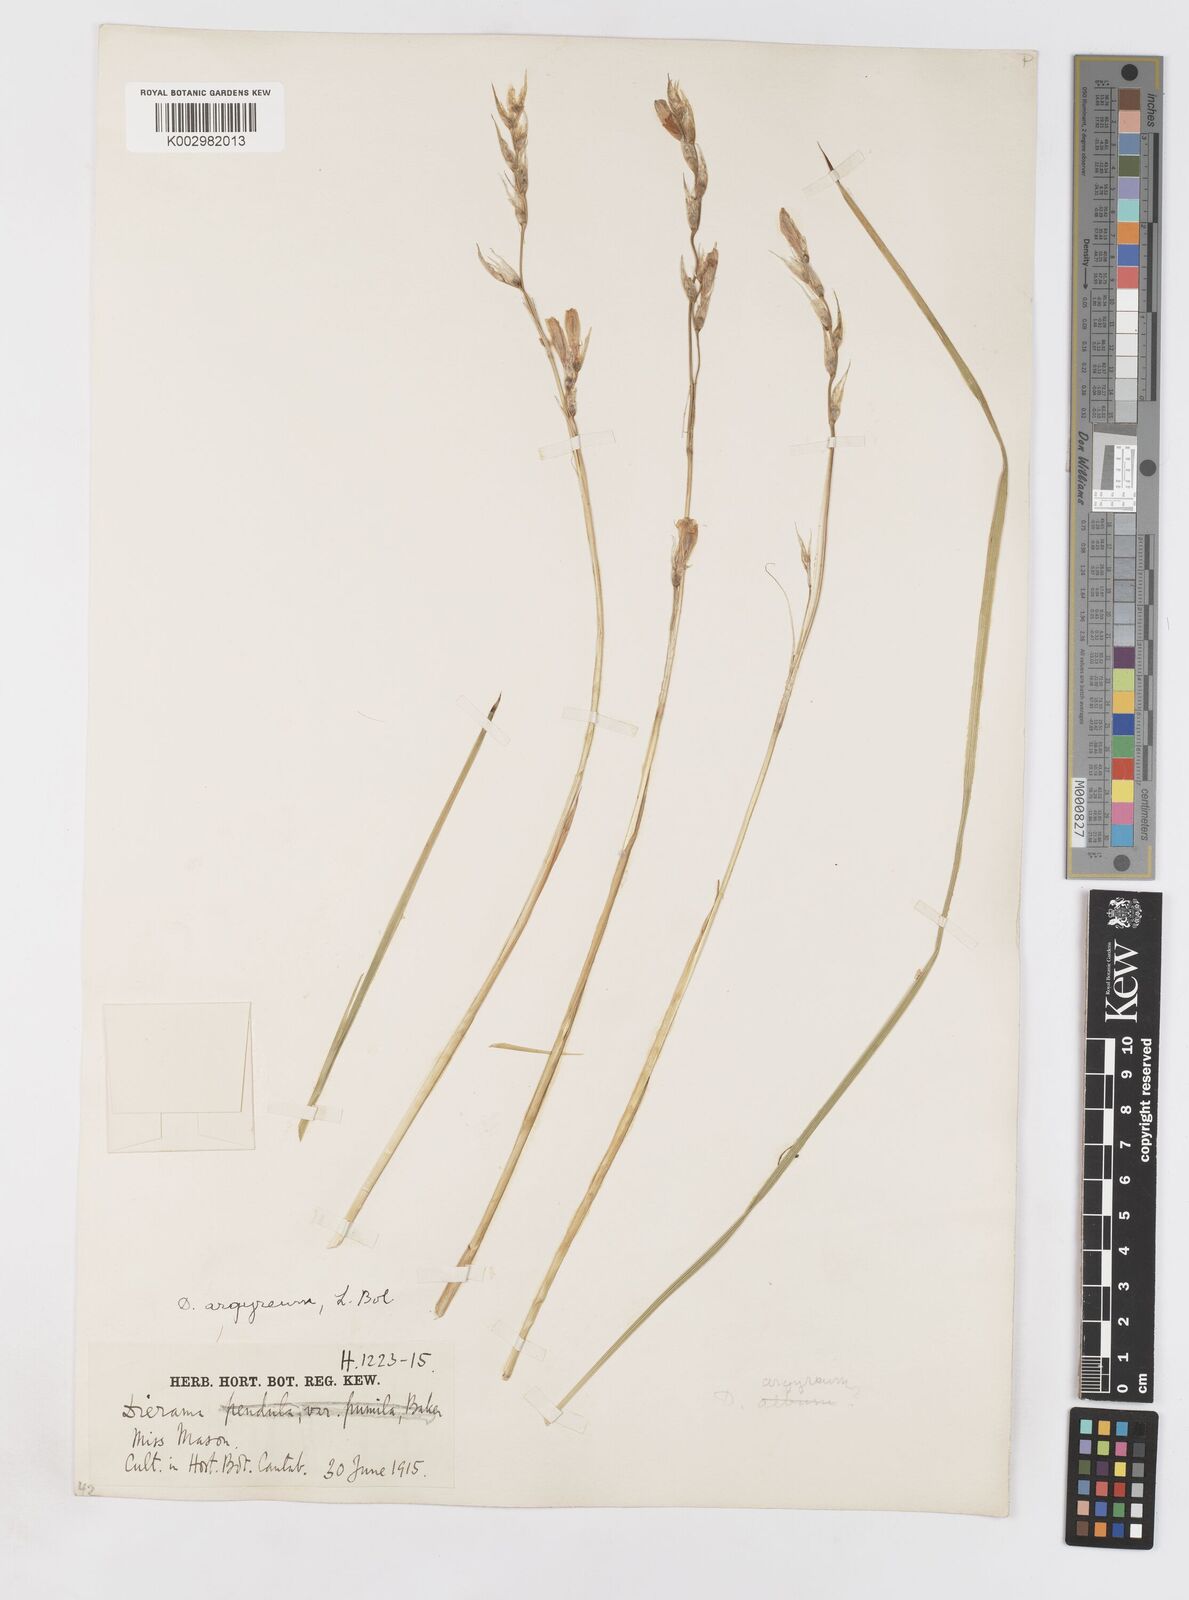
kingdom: Plantae
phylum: Tracheophyta
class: Liliopsida
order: Asparagales
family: Iridaceae
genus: Dierama
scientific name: Dierama argyreum
